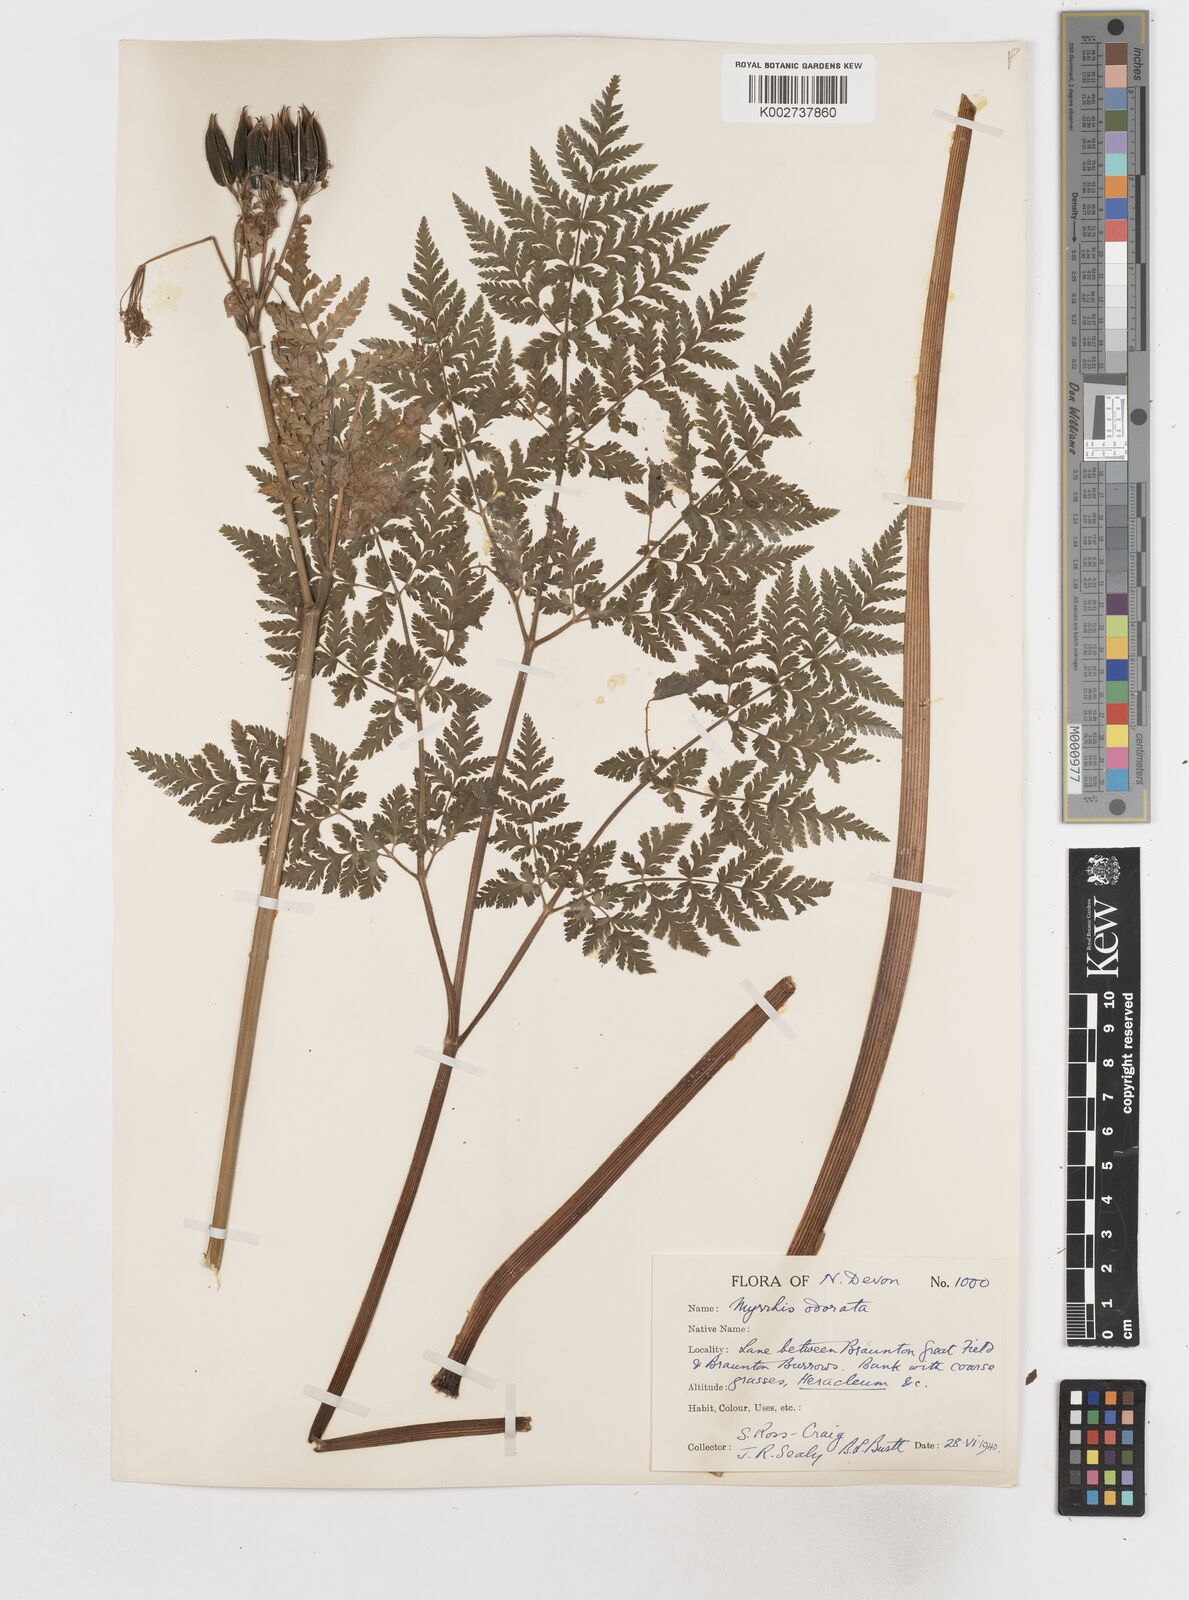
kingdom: Plantae
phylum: Tracheophyta
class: Magnoliopsida
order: Apiales
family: Apiaceae
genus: Myrrhis
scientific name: Myrrhis odorata
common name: Sweet cicely
